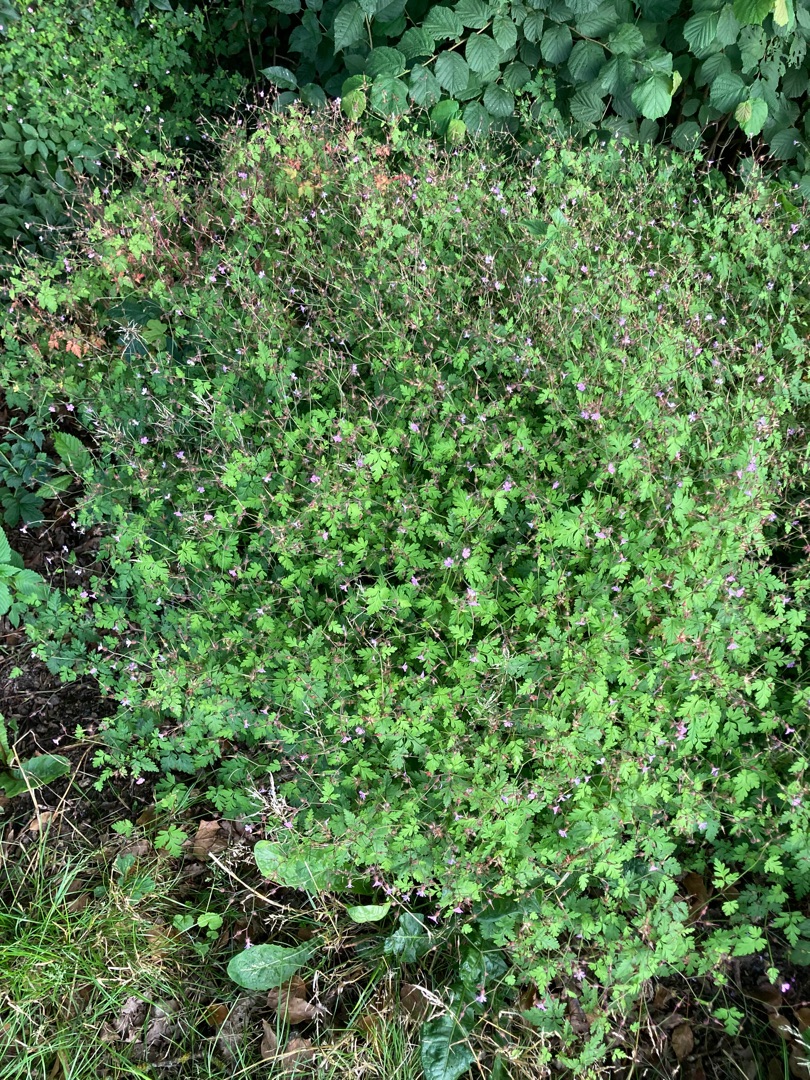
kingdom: Plantae
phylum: Tracheophyta
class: Magnoliopsida
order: Geraniales
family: Geraniaceae
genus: Geranium
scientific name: Geranium robertianum
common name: Stinkende storkenæb
